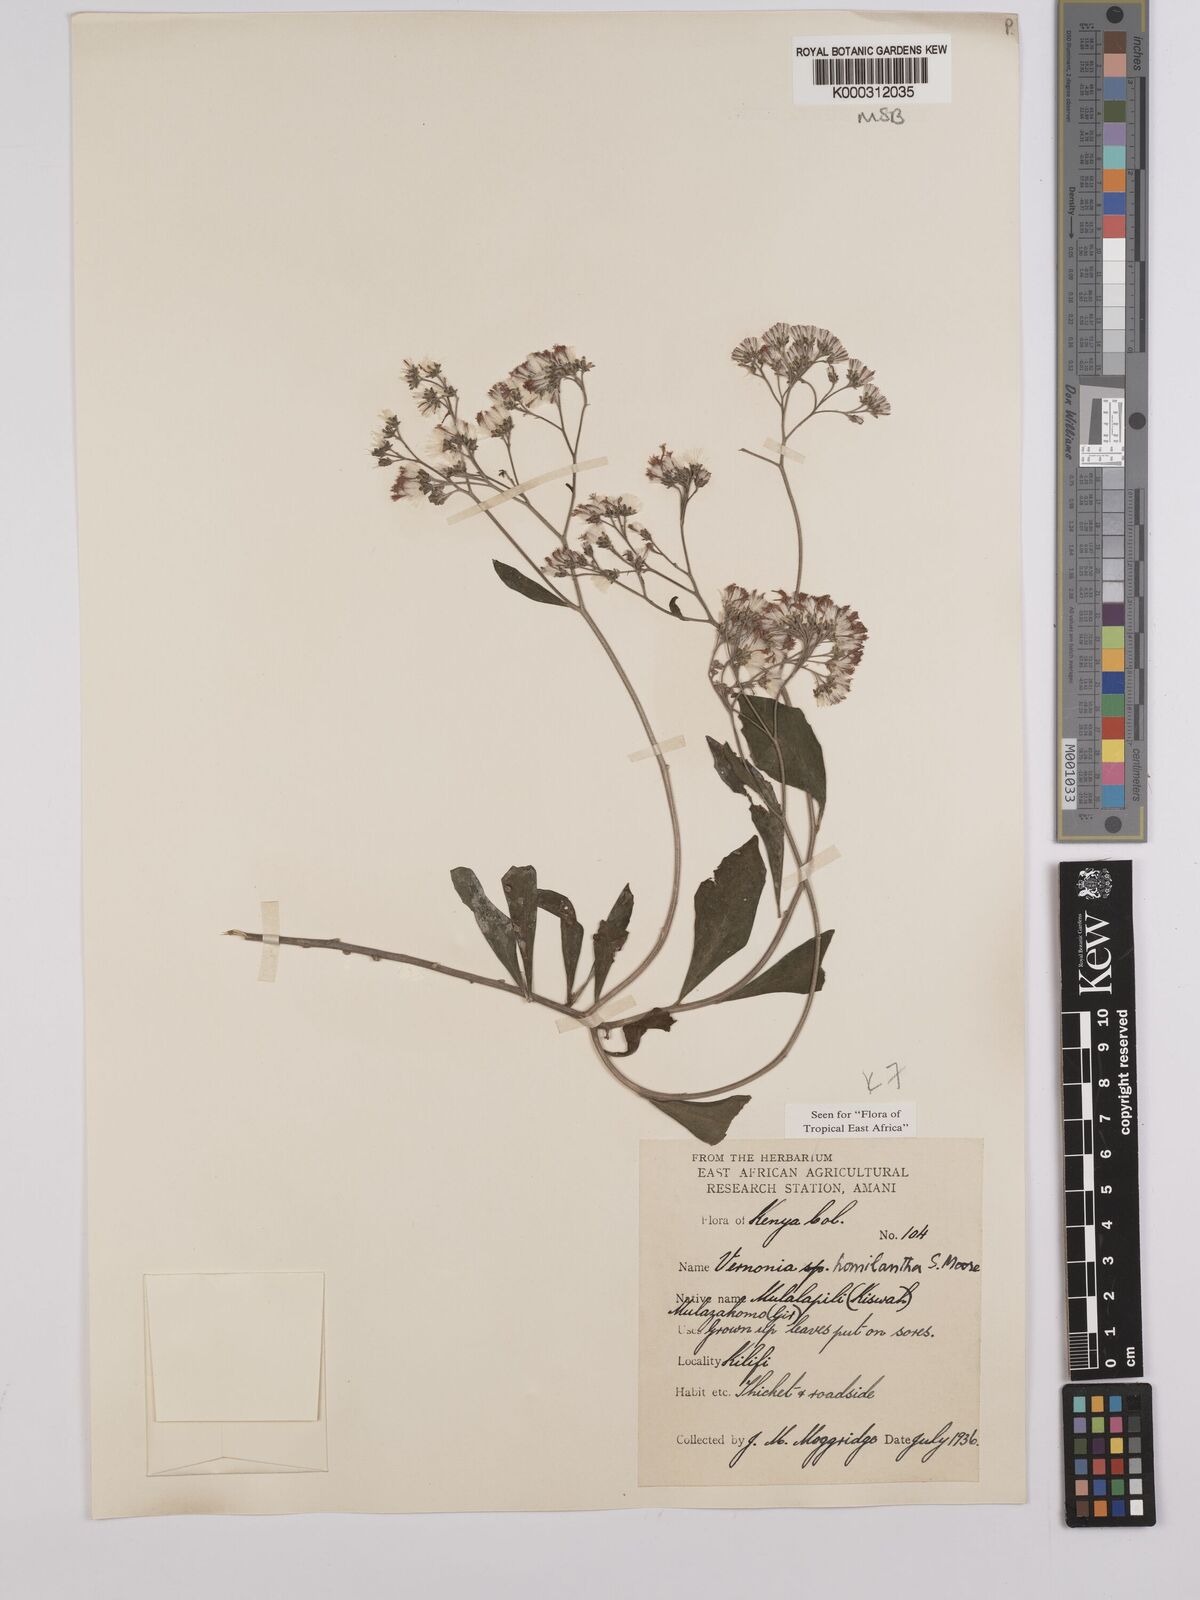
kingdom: Plantae
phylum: Tracheophyta
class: Magnoliopsida
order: Asterales
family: Asteraceae
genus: Orbivestus
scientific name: Orbivestus homilanthus
